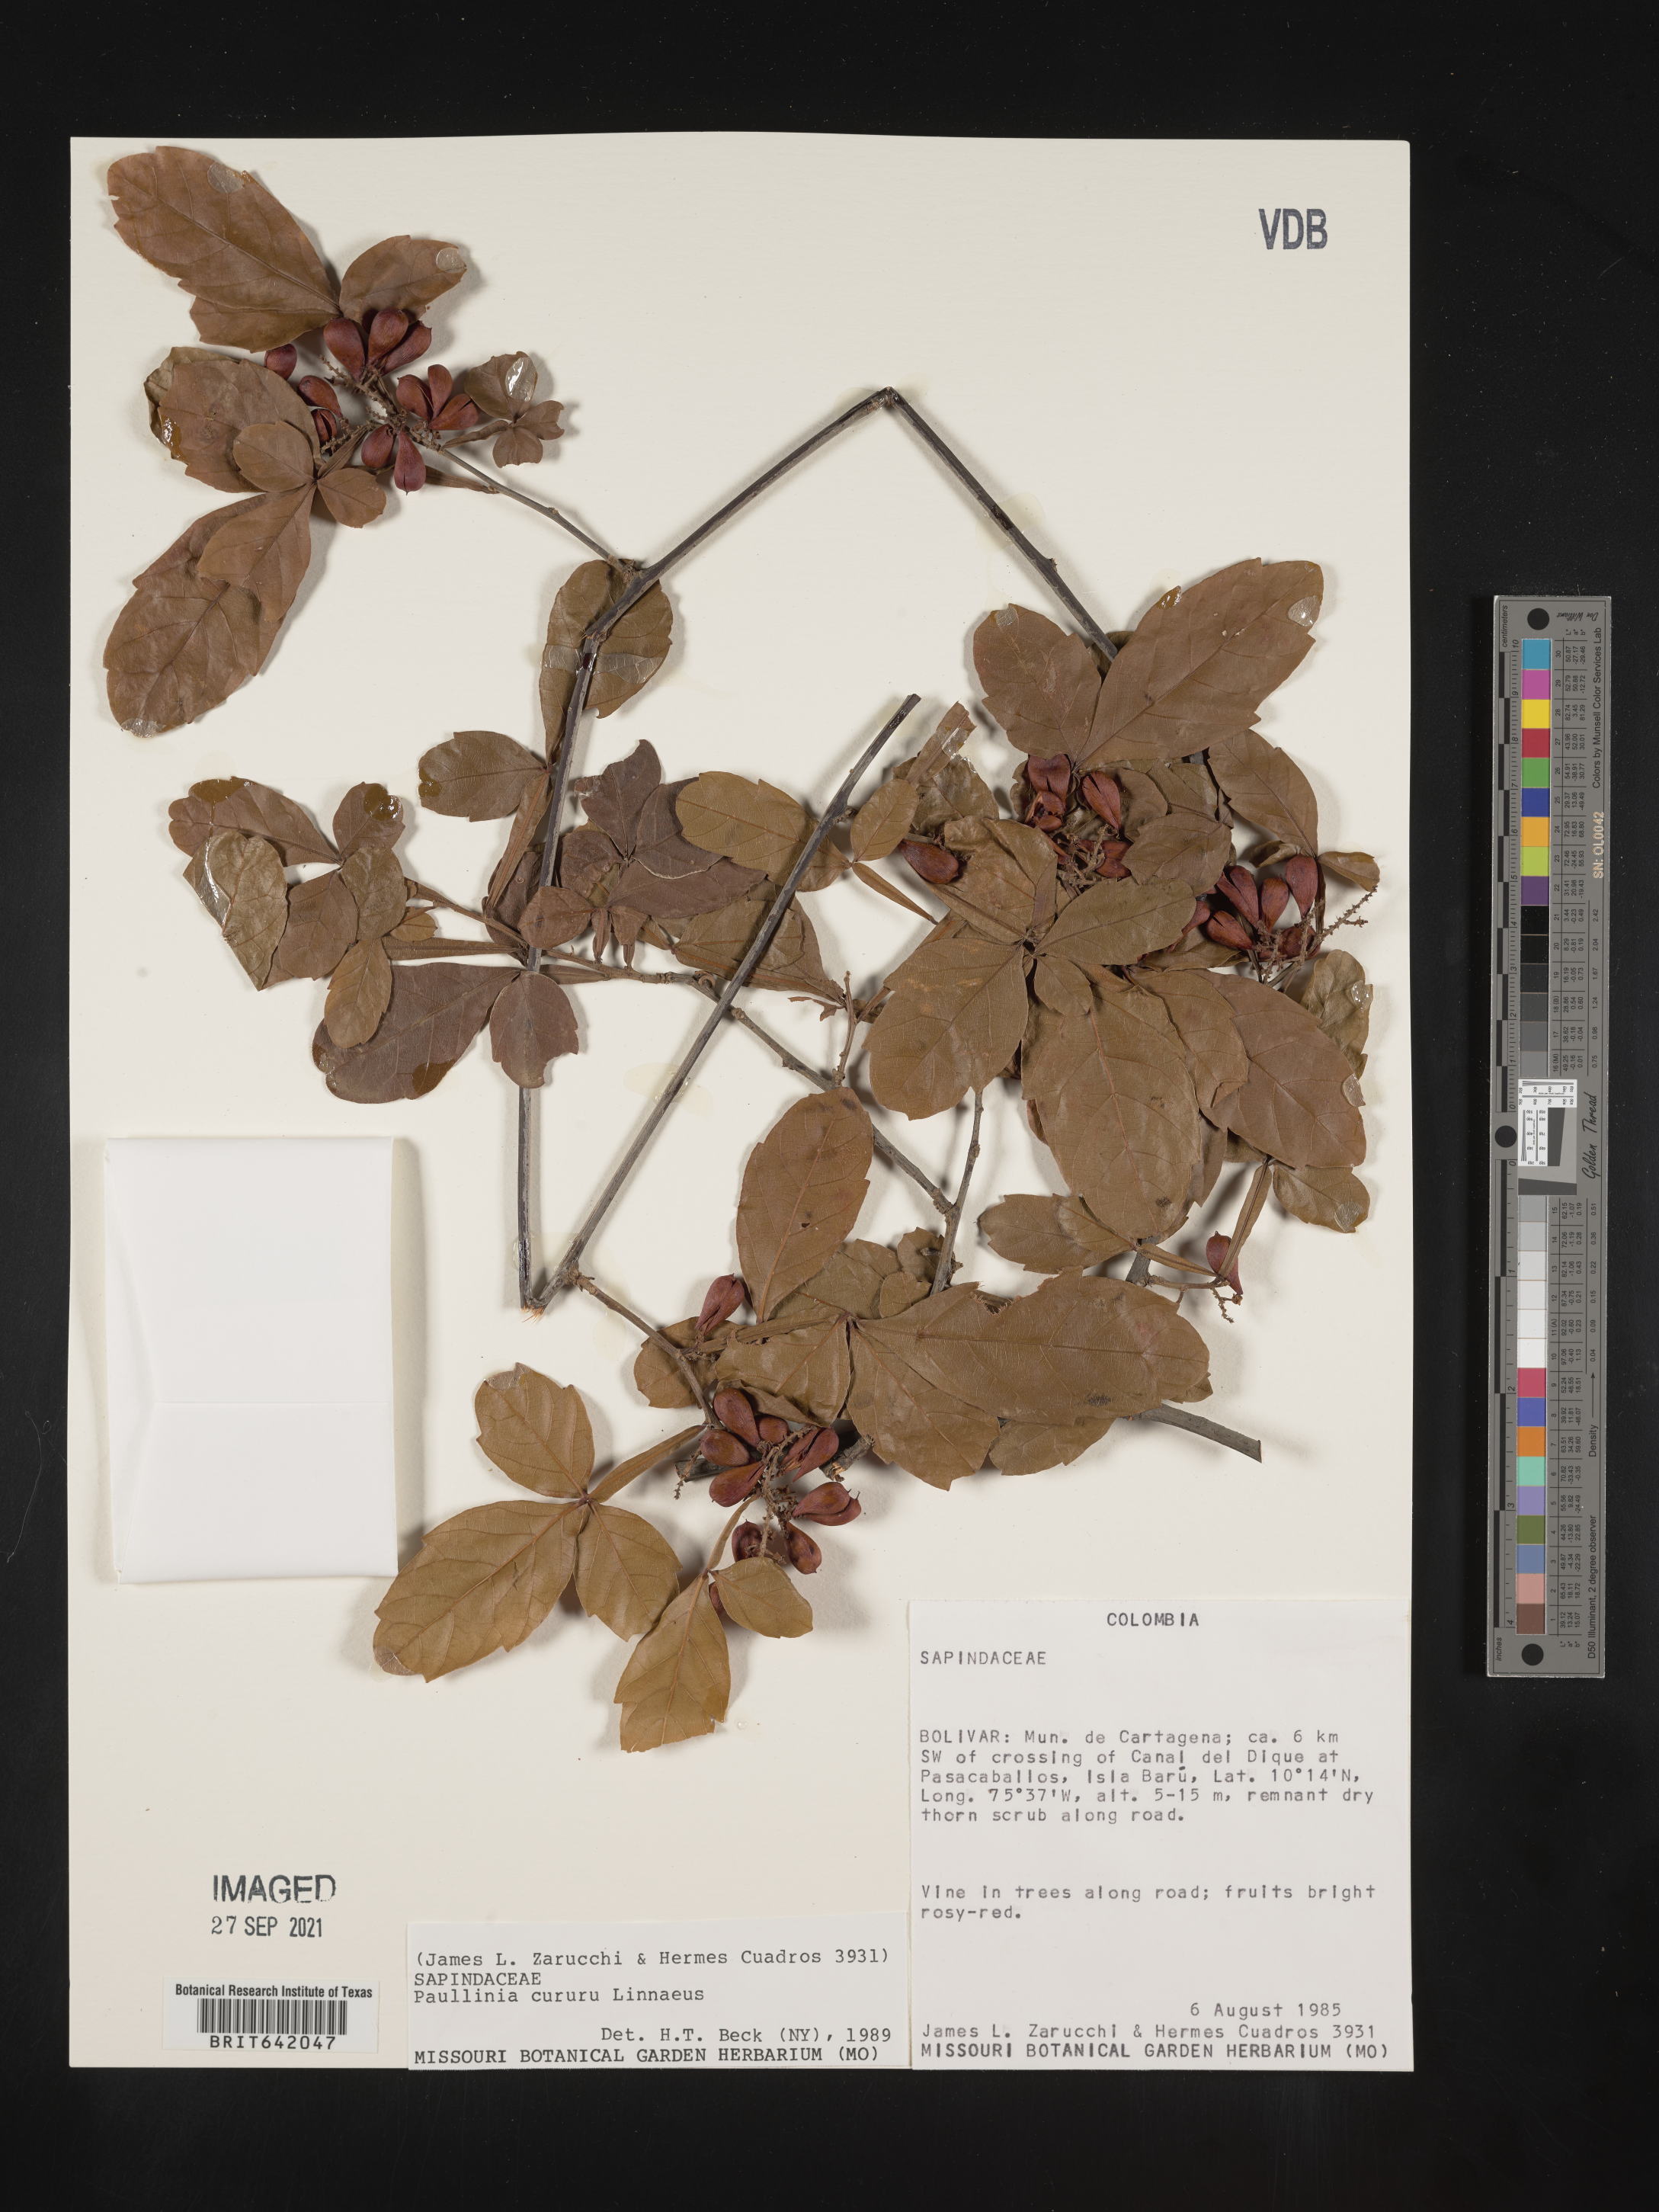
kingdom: Plantae
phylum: Tracheophyta
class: Magnoliopsida
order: Sapindales
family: Sapindaceae
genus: Paullinia
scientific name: Paullinia
